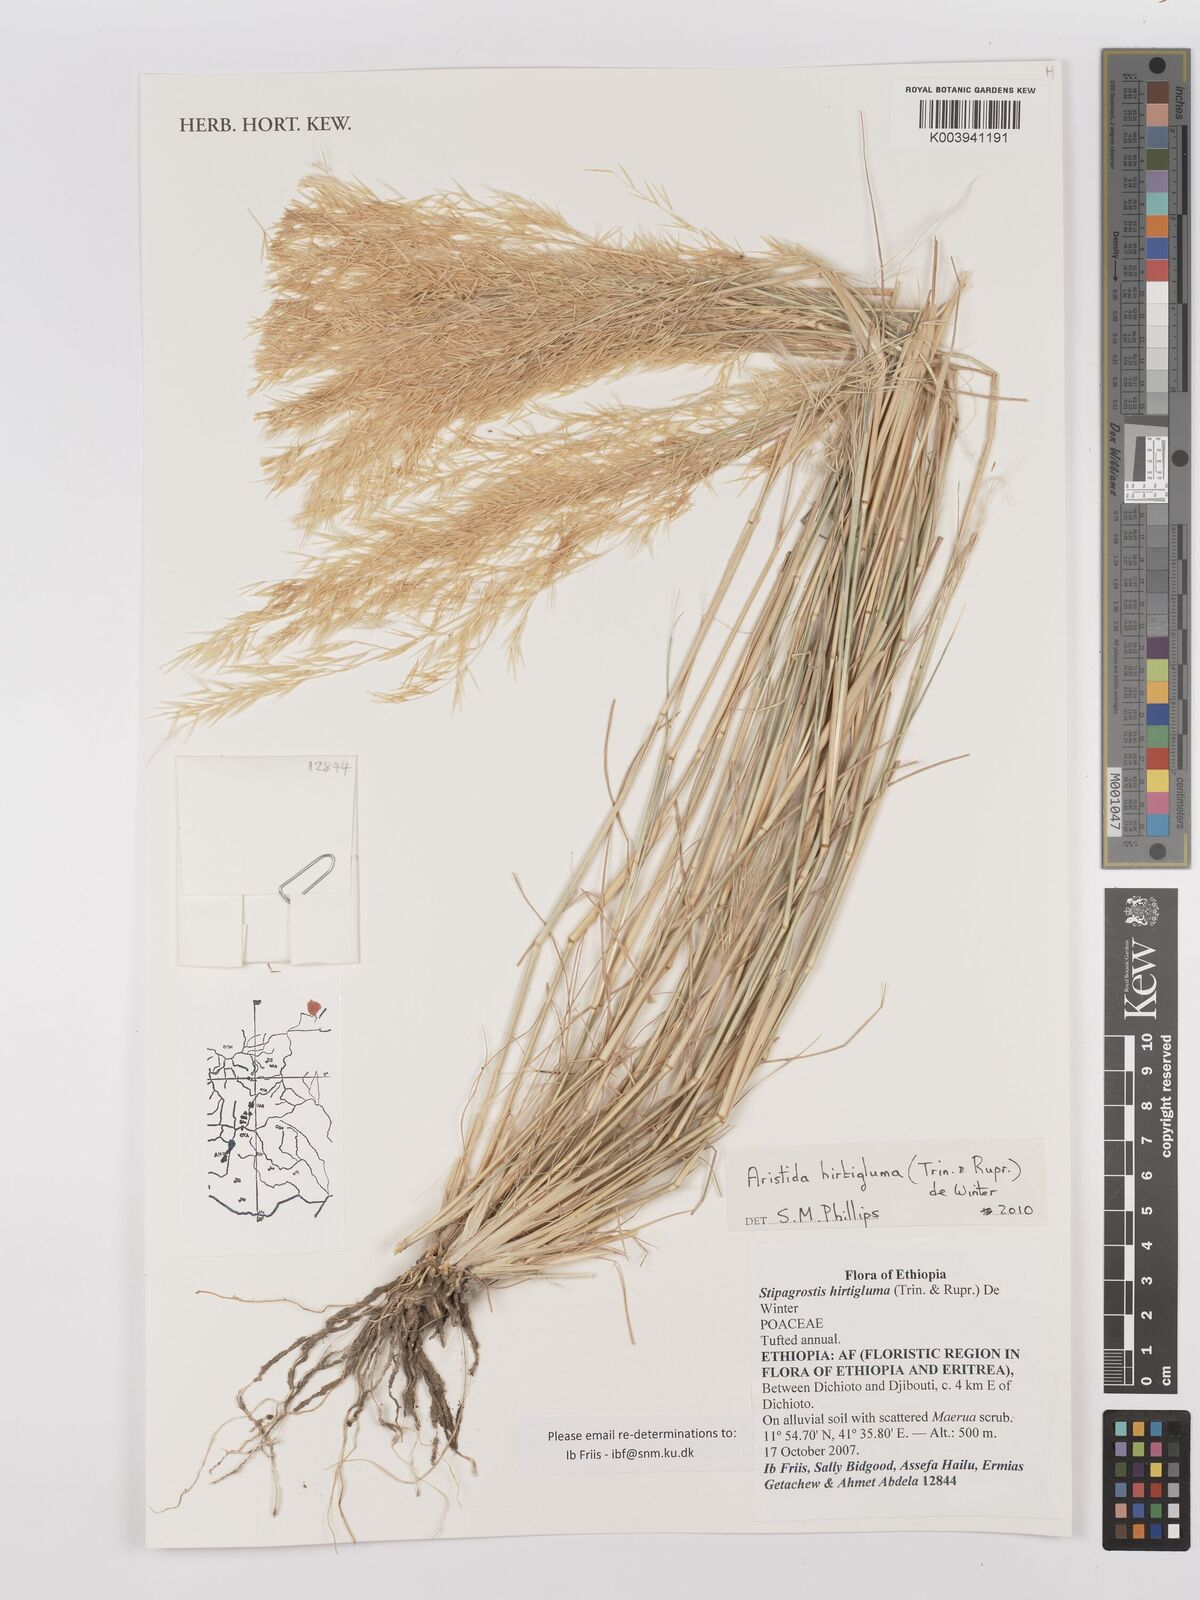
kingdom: Plantae
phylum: Tracheophyta
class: Liliopsida
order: Poales
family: Poaceae
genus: Stipagrostis
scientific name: Stipagrostis hirtigluma
